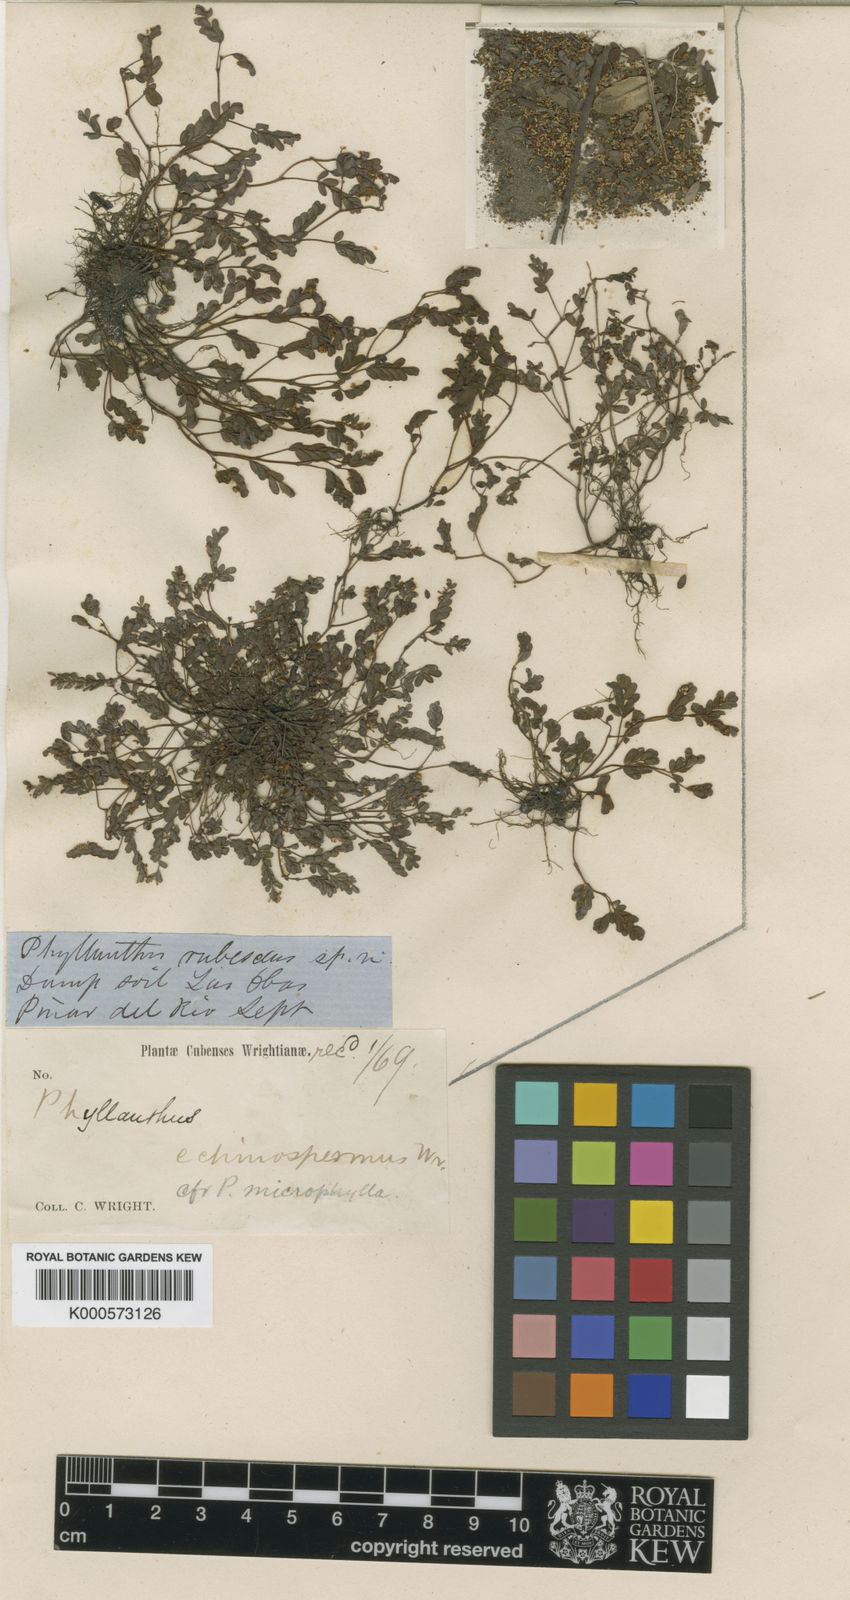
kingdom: Plantae
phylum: Tracheophyta
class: Magnoliopsida
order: Malpighiales
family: Phyllanthaceae
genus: Phyllanthus
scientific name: Phyllanthus echinospermus
